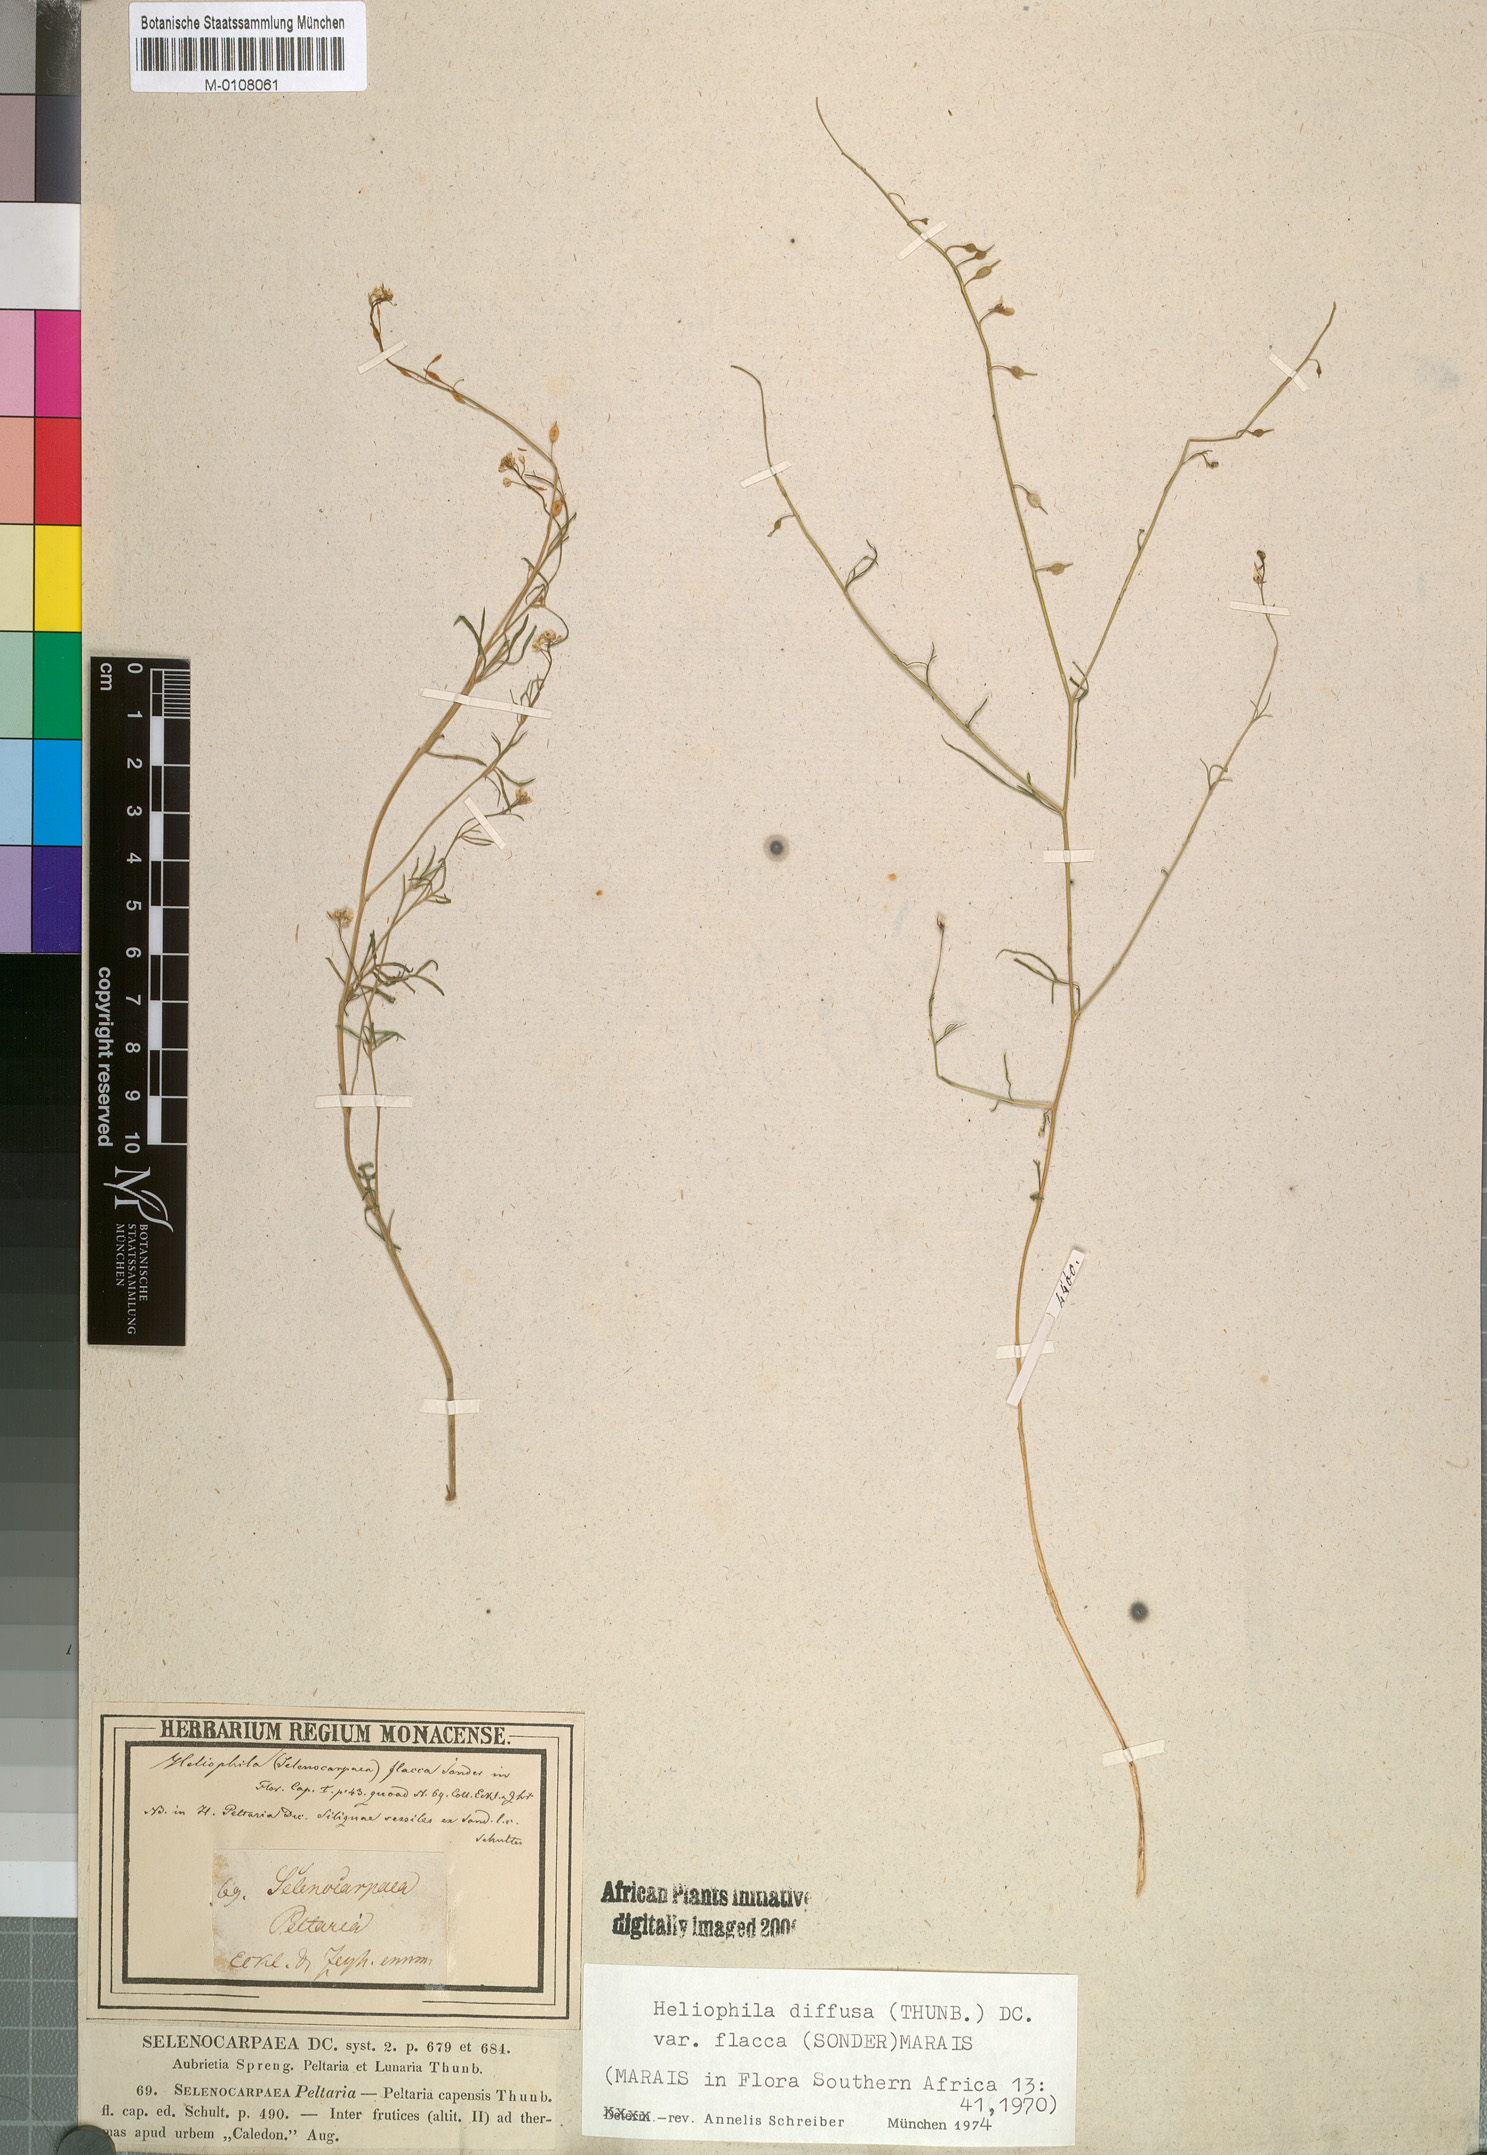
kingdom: Plantae
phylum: Tracheophyta
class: Magnoliopsida
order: Brassicales
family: Brassicaceae
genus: Heliophila
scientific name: Heliophila diffusa
